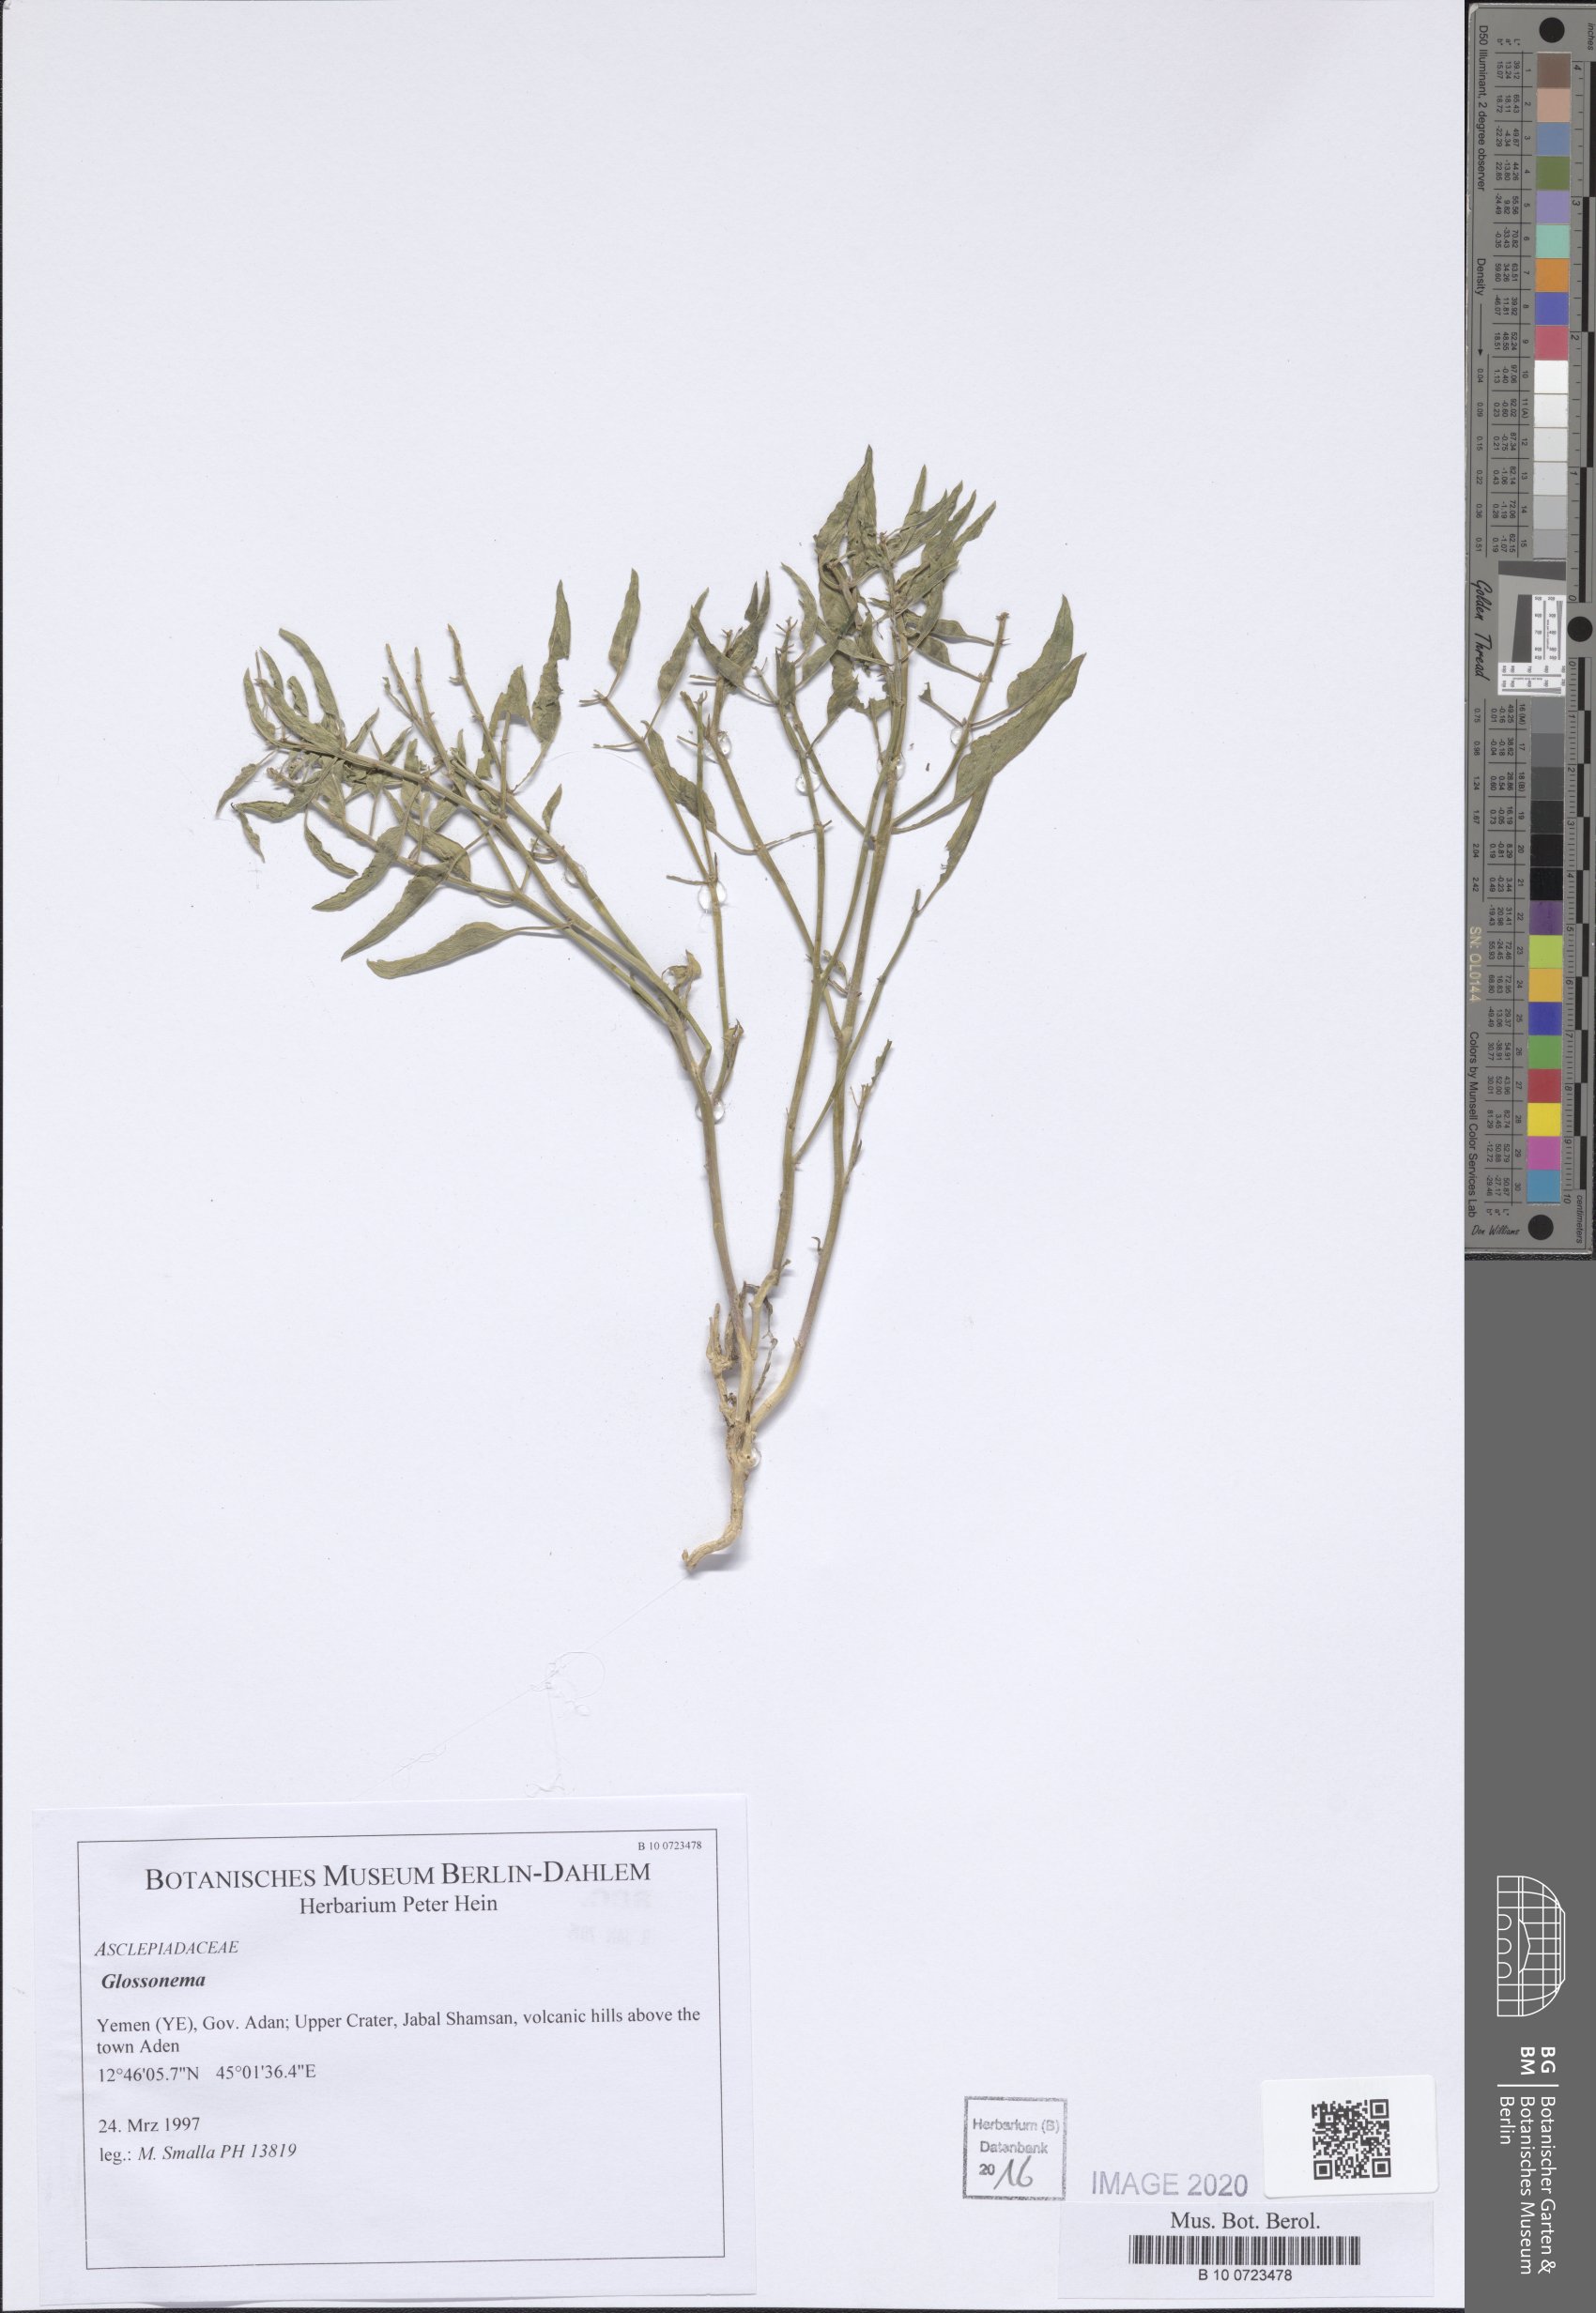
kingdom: Plantae
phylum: Tracheophyta
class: Magnoliopsida
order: Gentianales
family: Apocynaceae
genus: Cynanchum
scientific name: Cynanchum boveanum
